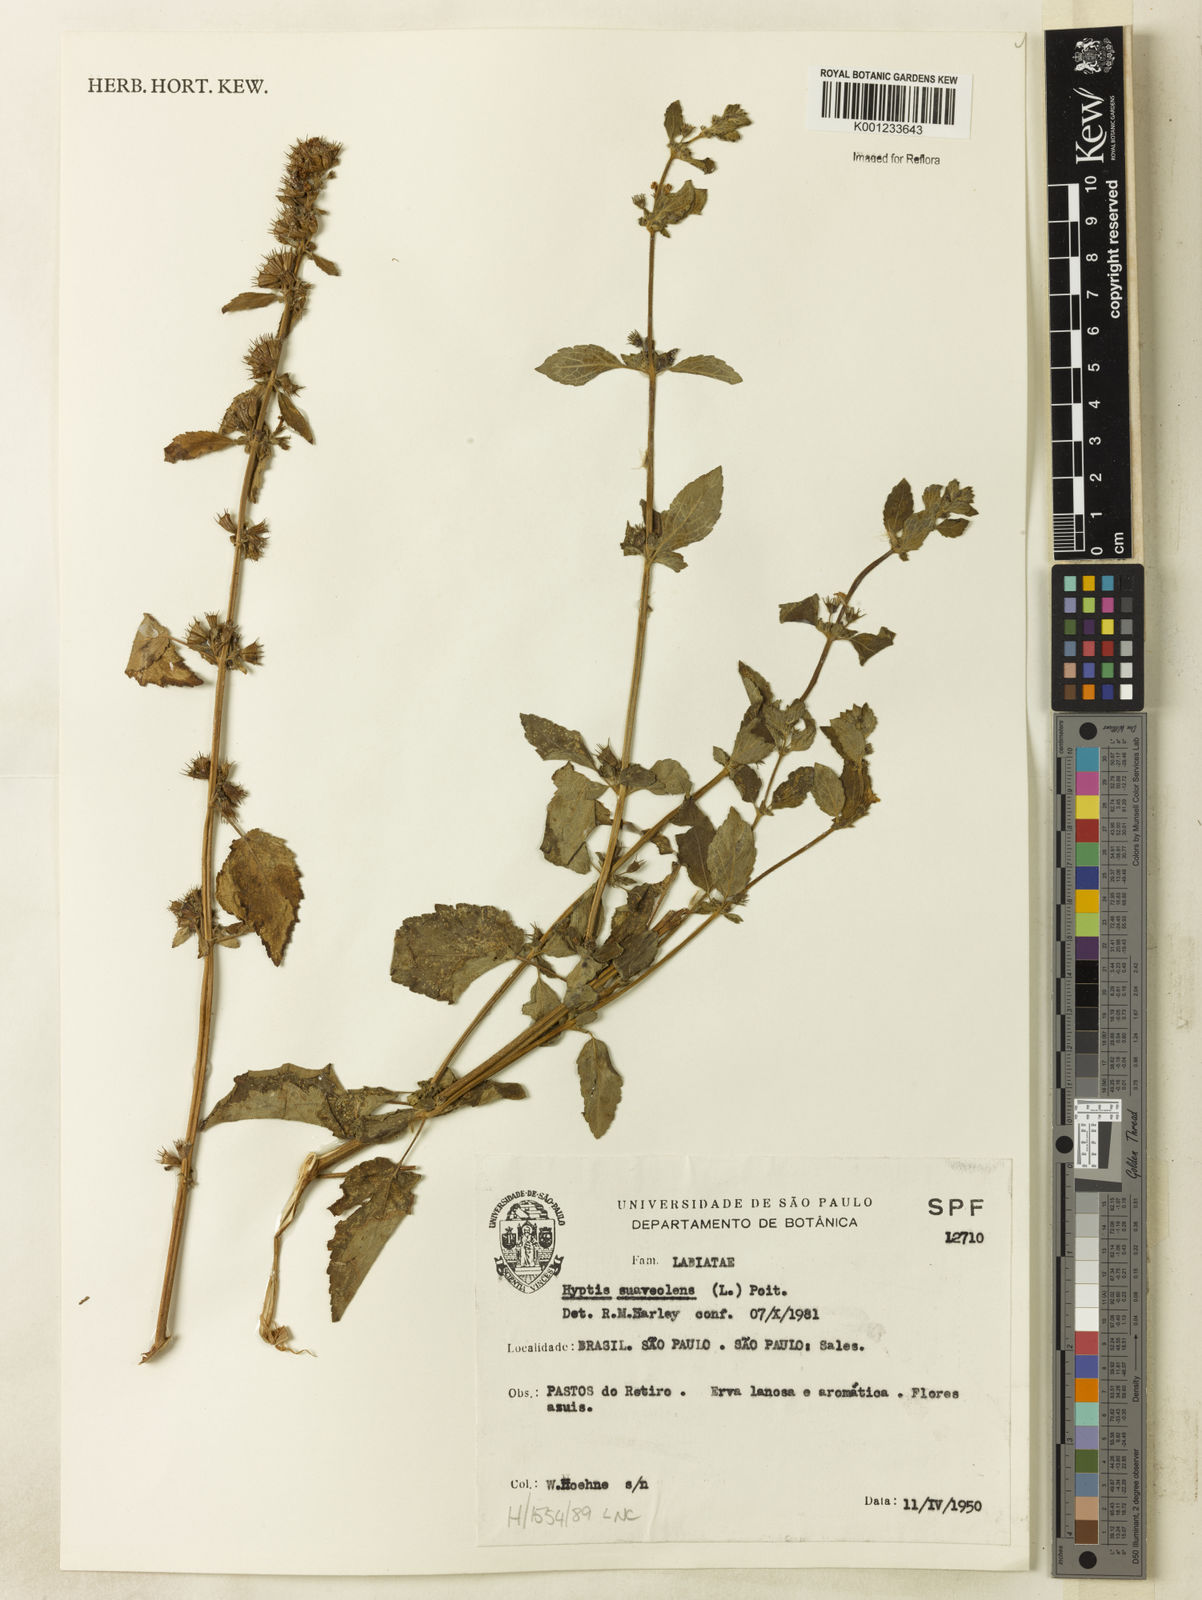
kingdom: Plantae
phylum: Tracheophyta
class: Magnoliopsida
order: Lamiales
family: Lamiaceae
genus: Mesosphaerum
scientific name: Mesosphaerum suaveolens
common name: Pignut
